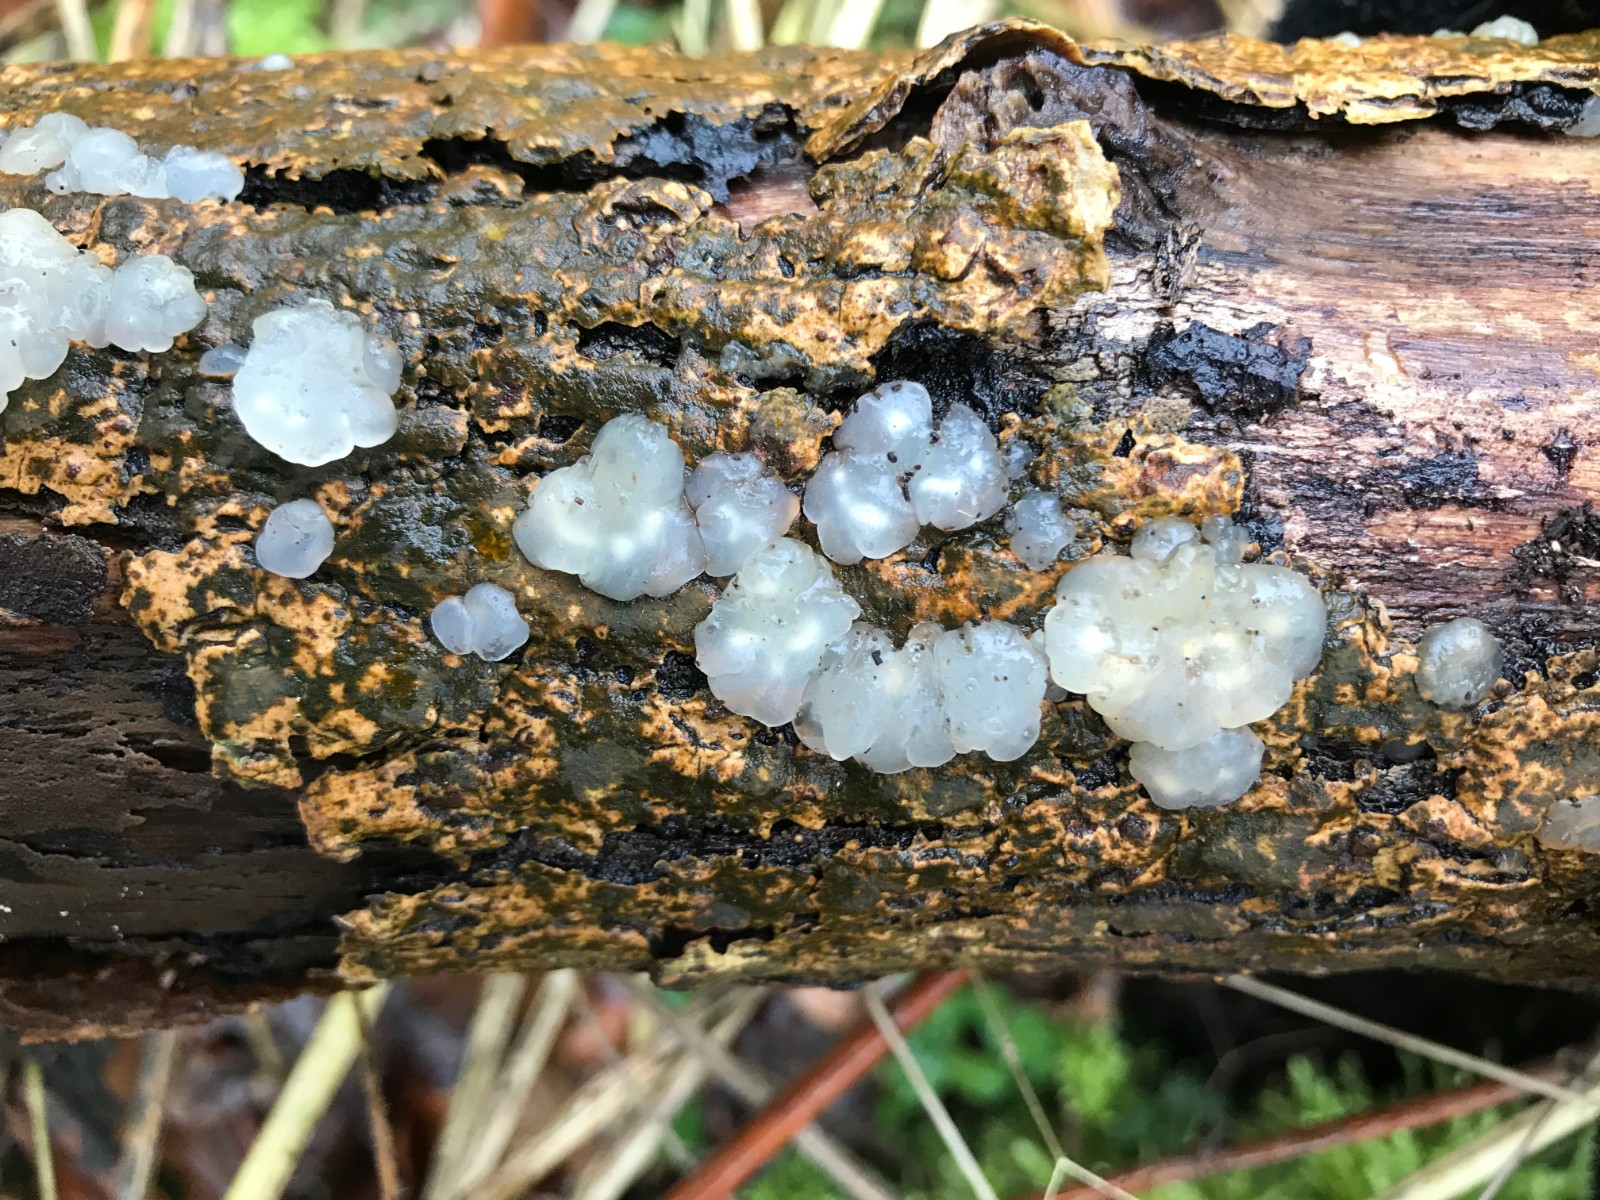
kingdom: Fungi
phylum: Basidiomycota
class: Agaricomycetes
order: Auriculariales
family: Hyaloriaceae
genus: Myxarium
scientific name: Myxarium nucleatum
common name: klar bævretop
